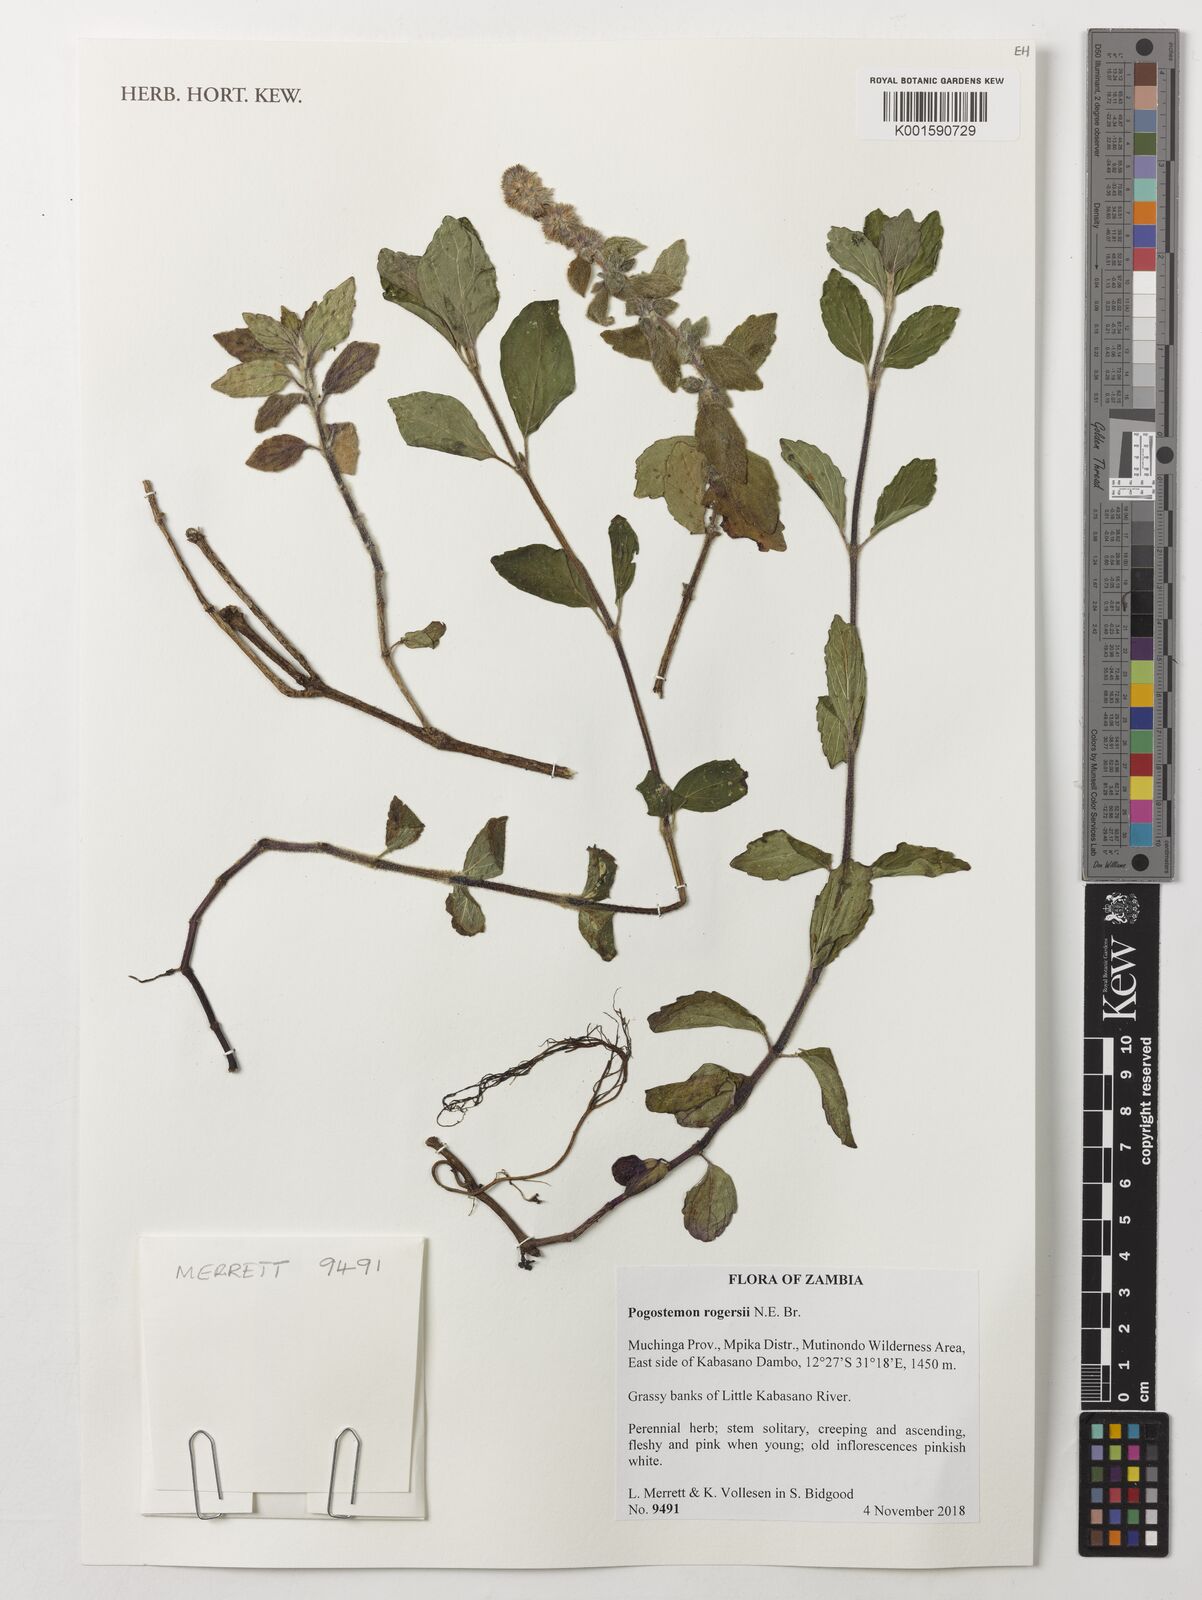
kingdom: Plantae
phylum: Tracheophyta
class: Magnoliopsida
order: Lamiales
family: Lamiaceae
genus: Pogostemon
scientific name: Pogostemon rogersii
